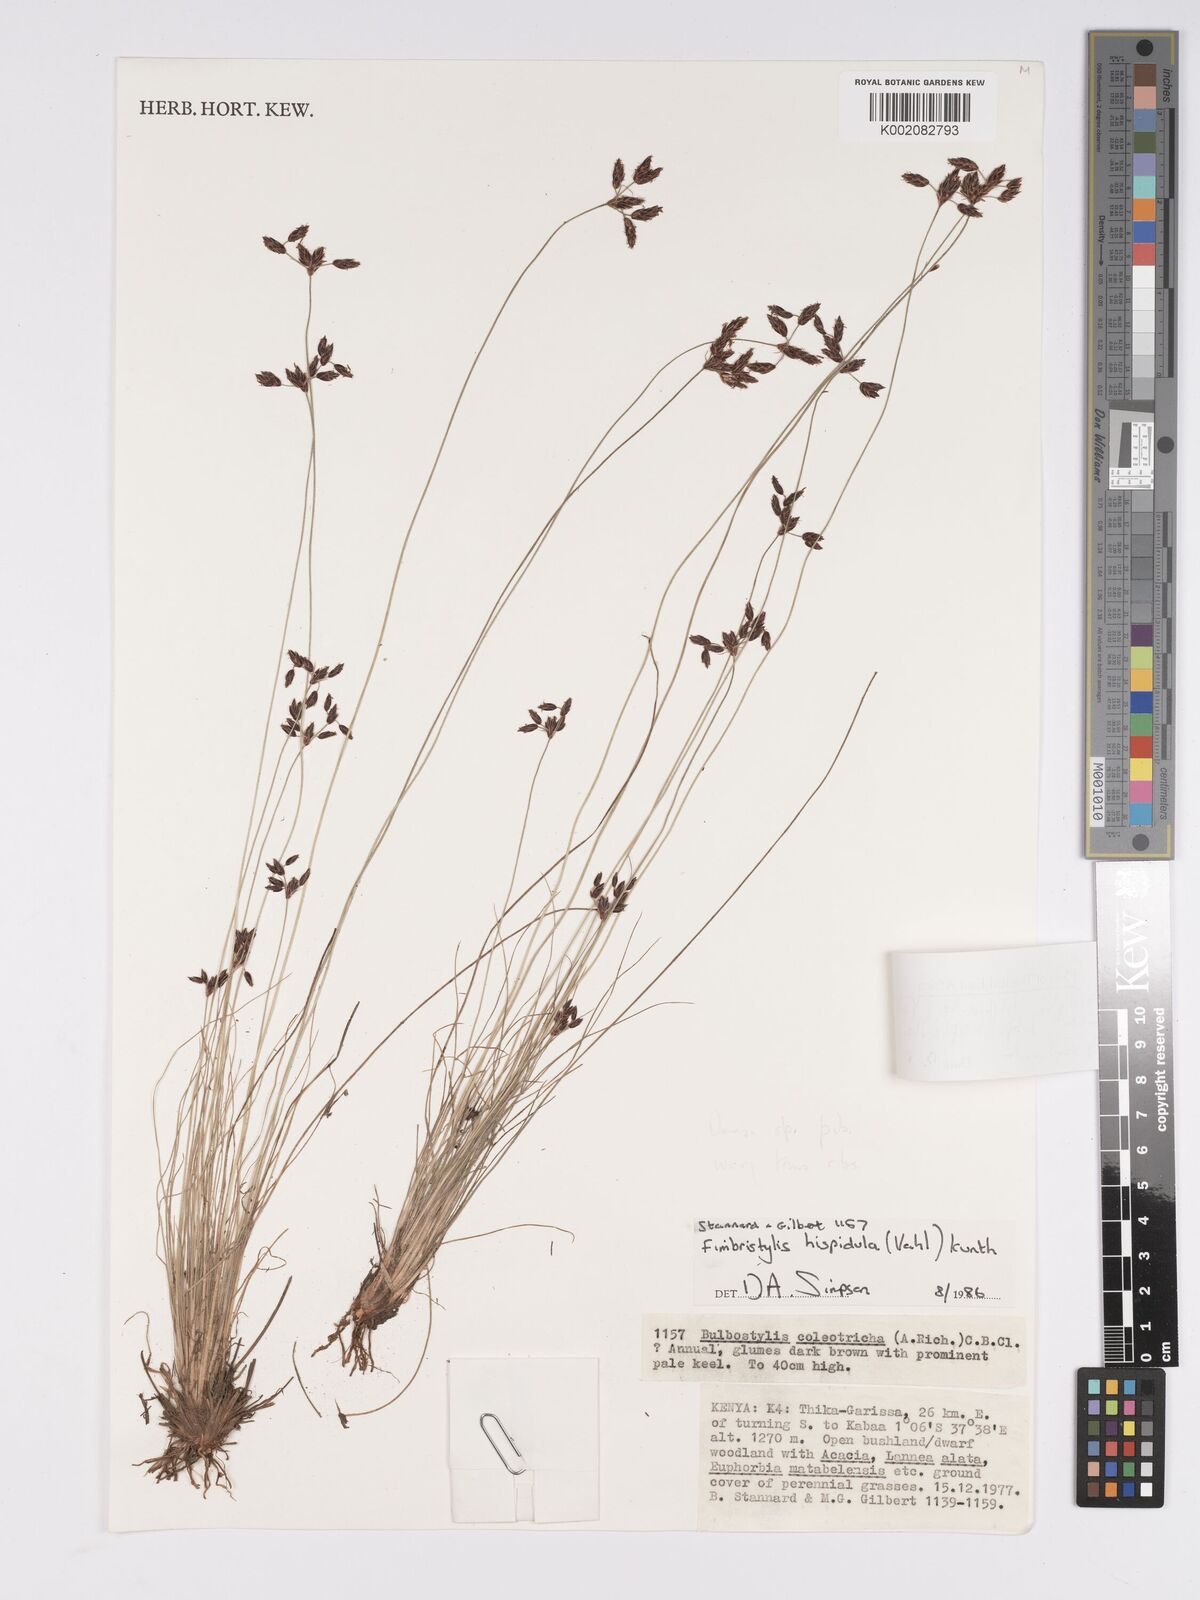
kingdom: Plantae
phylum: Tracheophyta
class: Liliopsida
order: Poales
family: Cyperaceae
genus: Bulbostylis
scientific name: Bulbostylis hispidula
